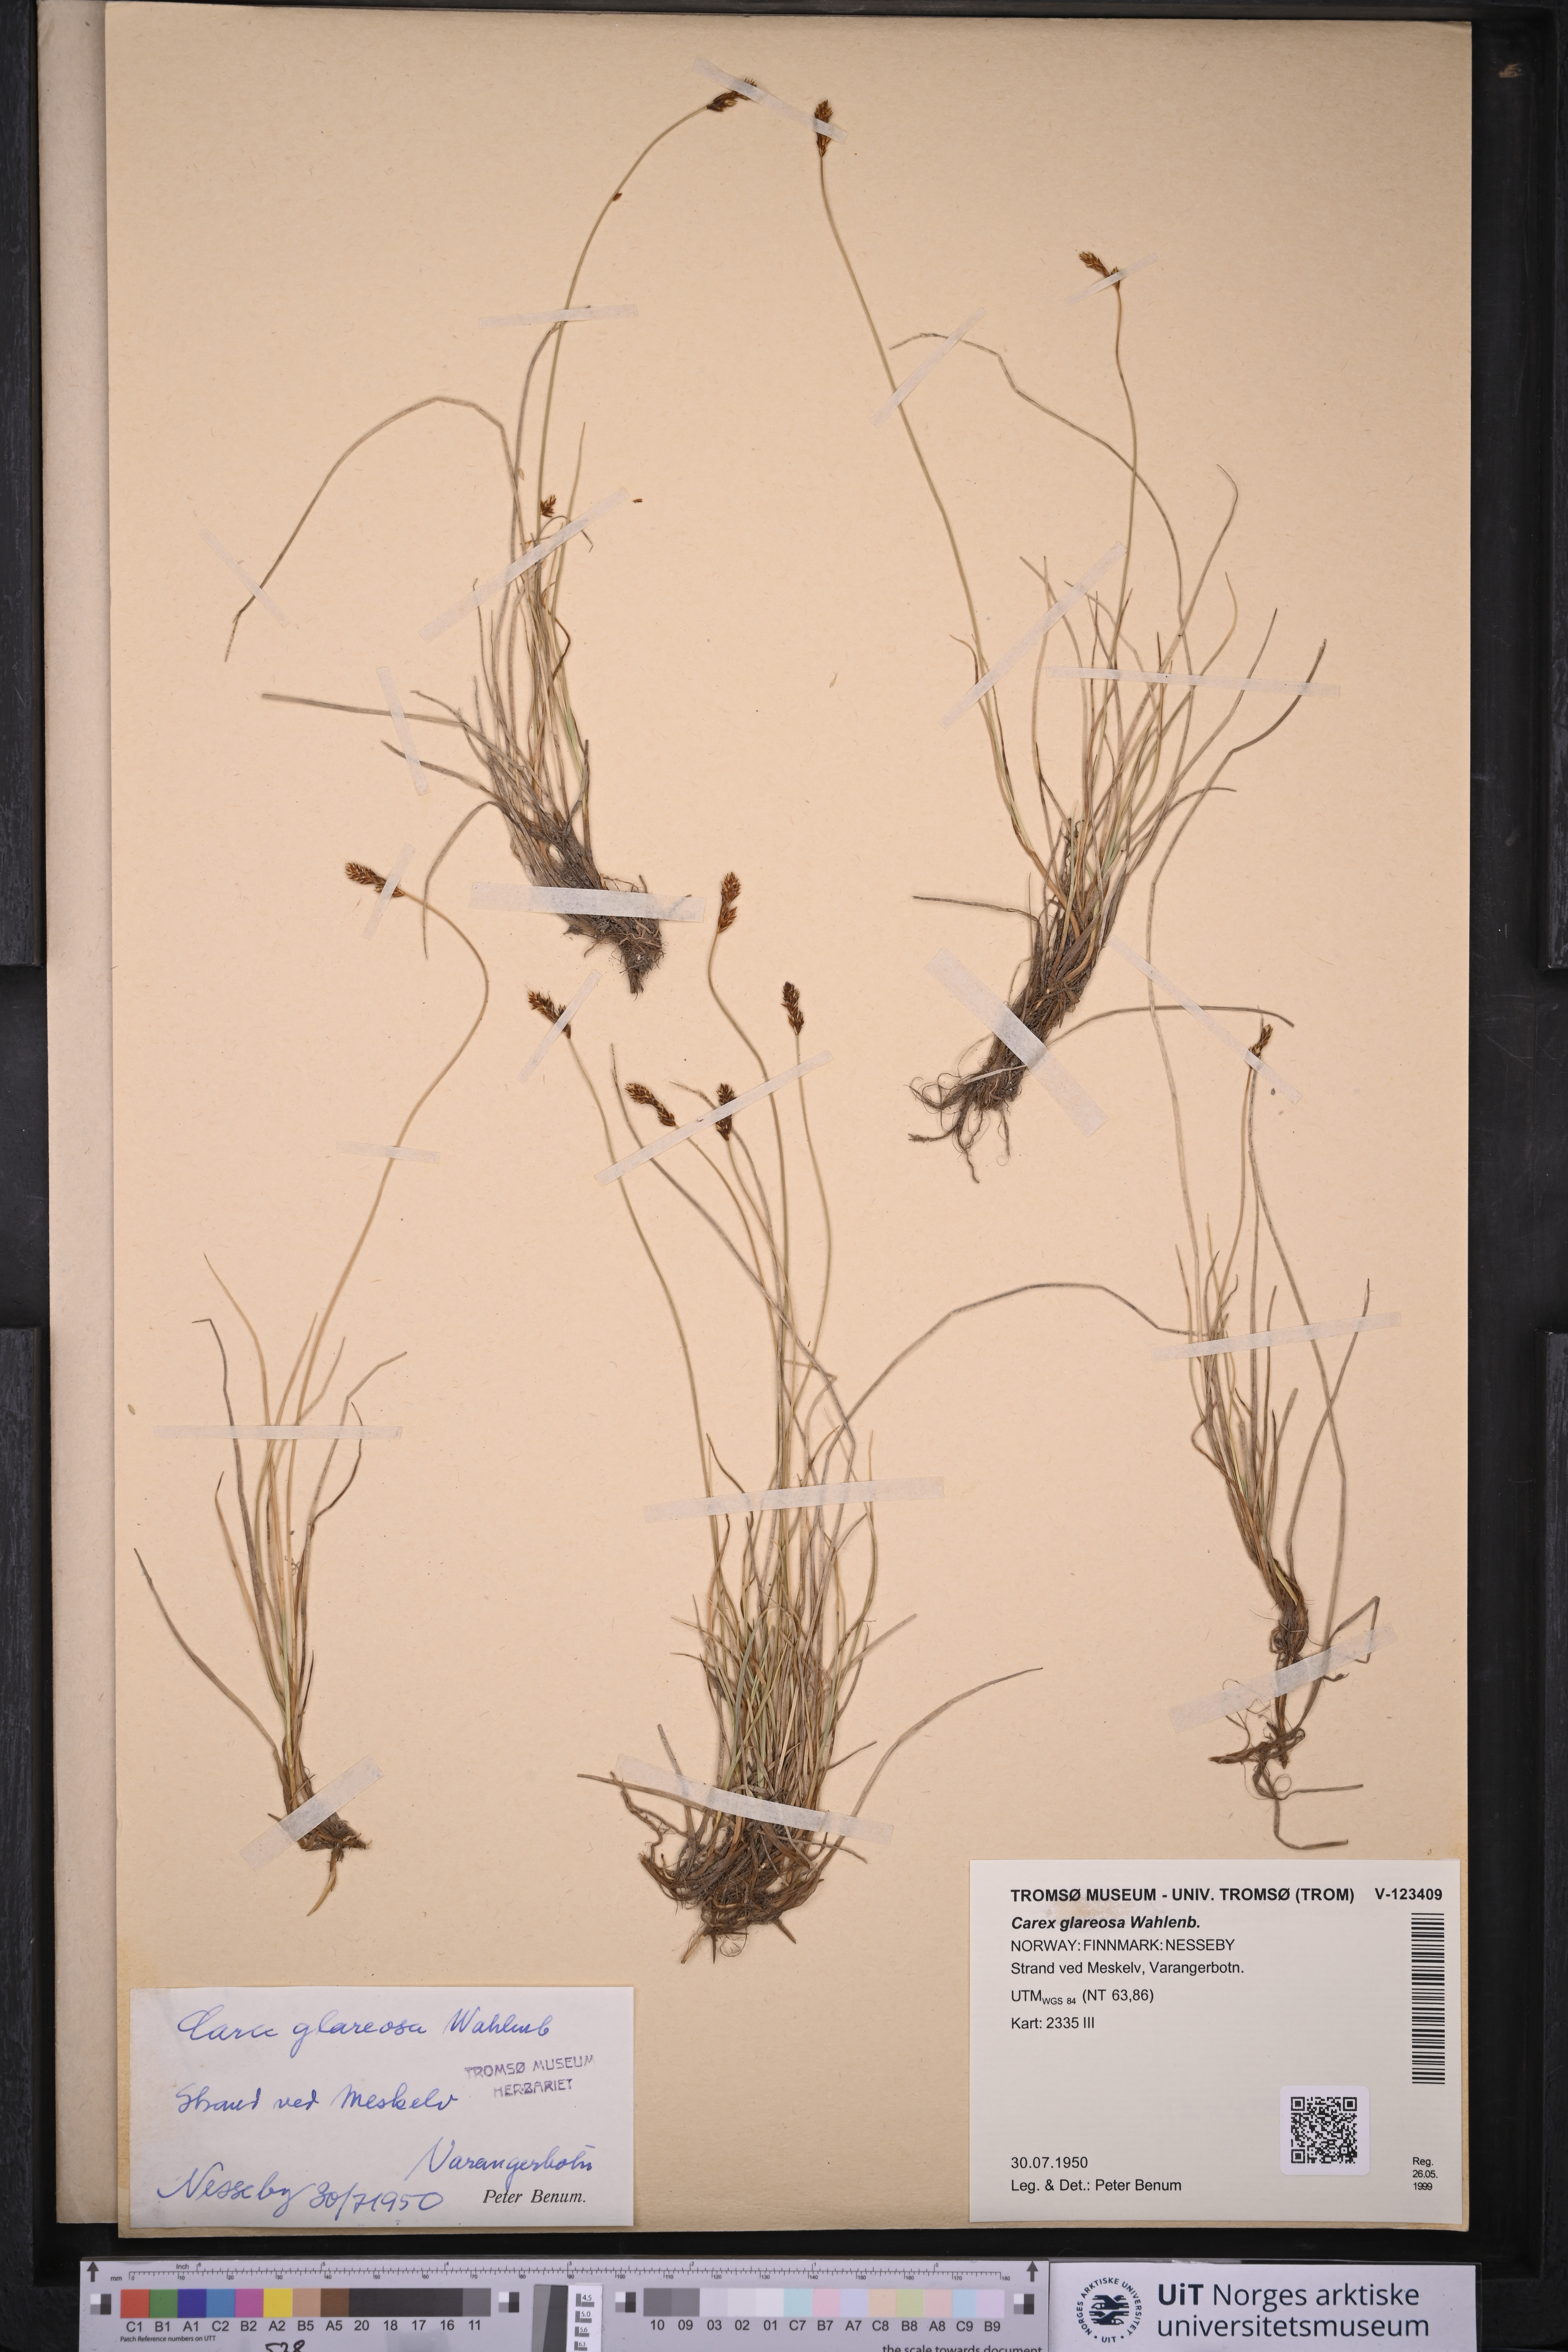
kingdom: Plantae
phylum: Tracheophyta
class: Liliopsida
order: Poales
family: Cyperaceae
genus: Carex
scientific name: Carex glareosa
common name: Clustered sedge
